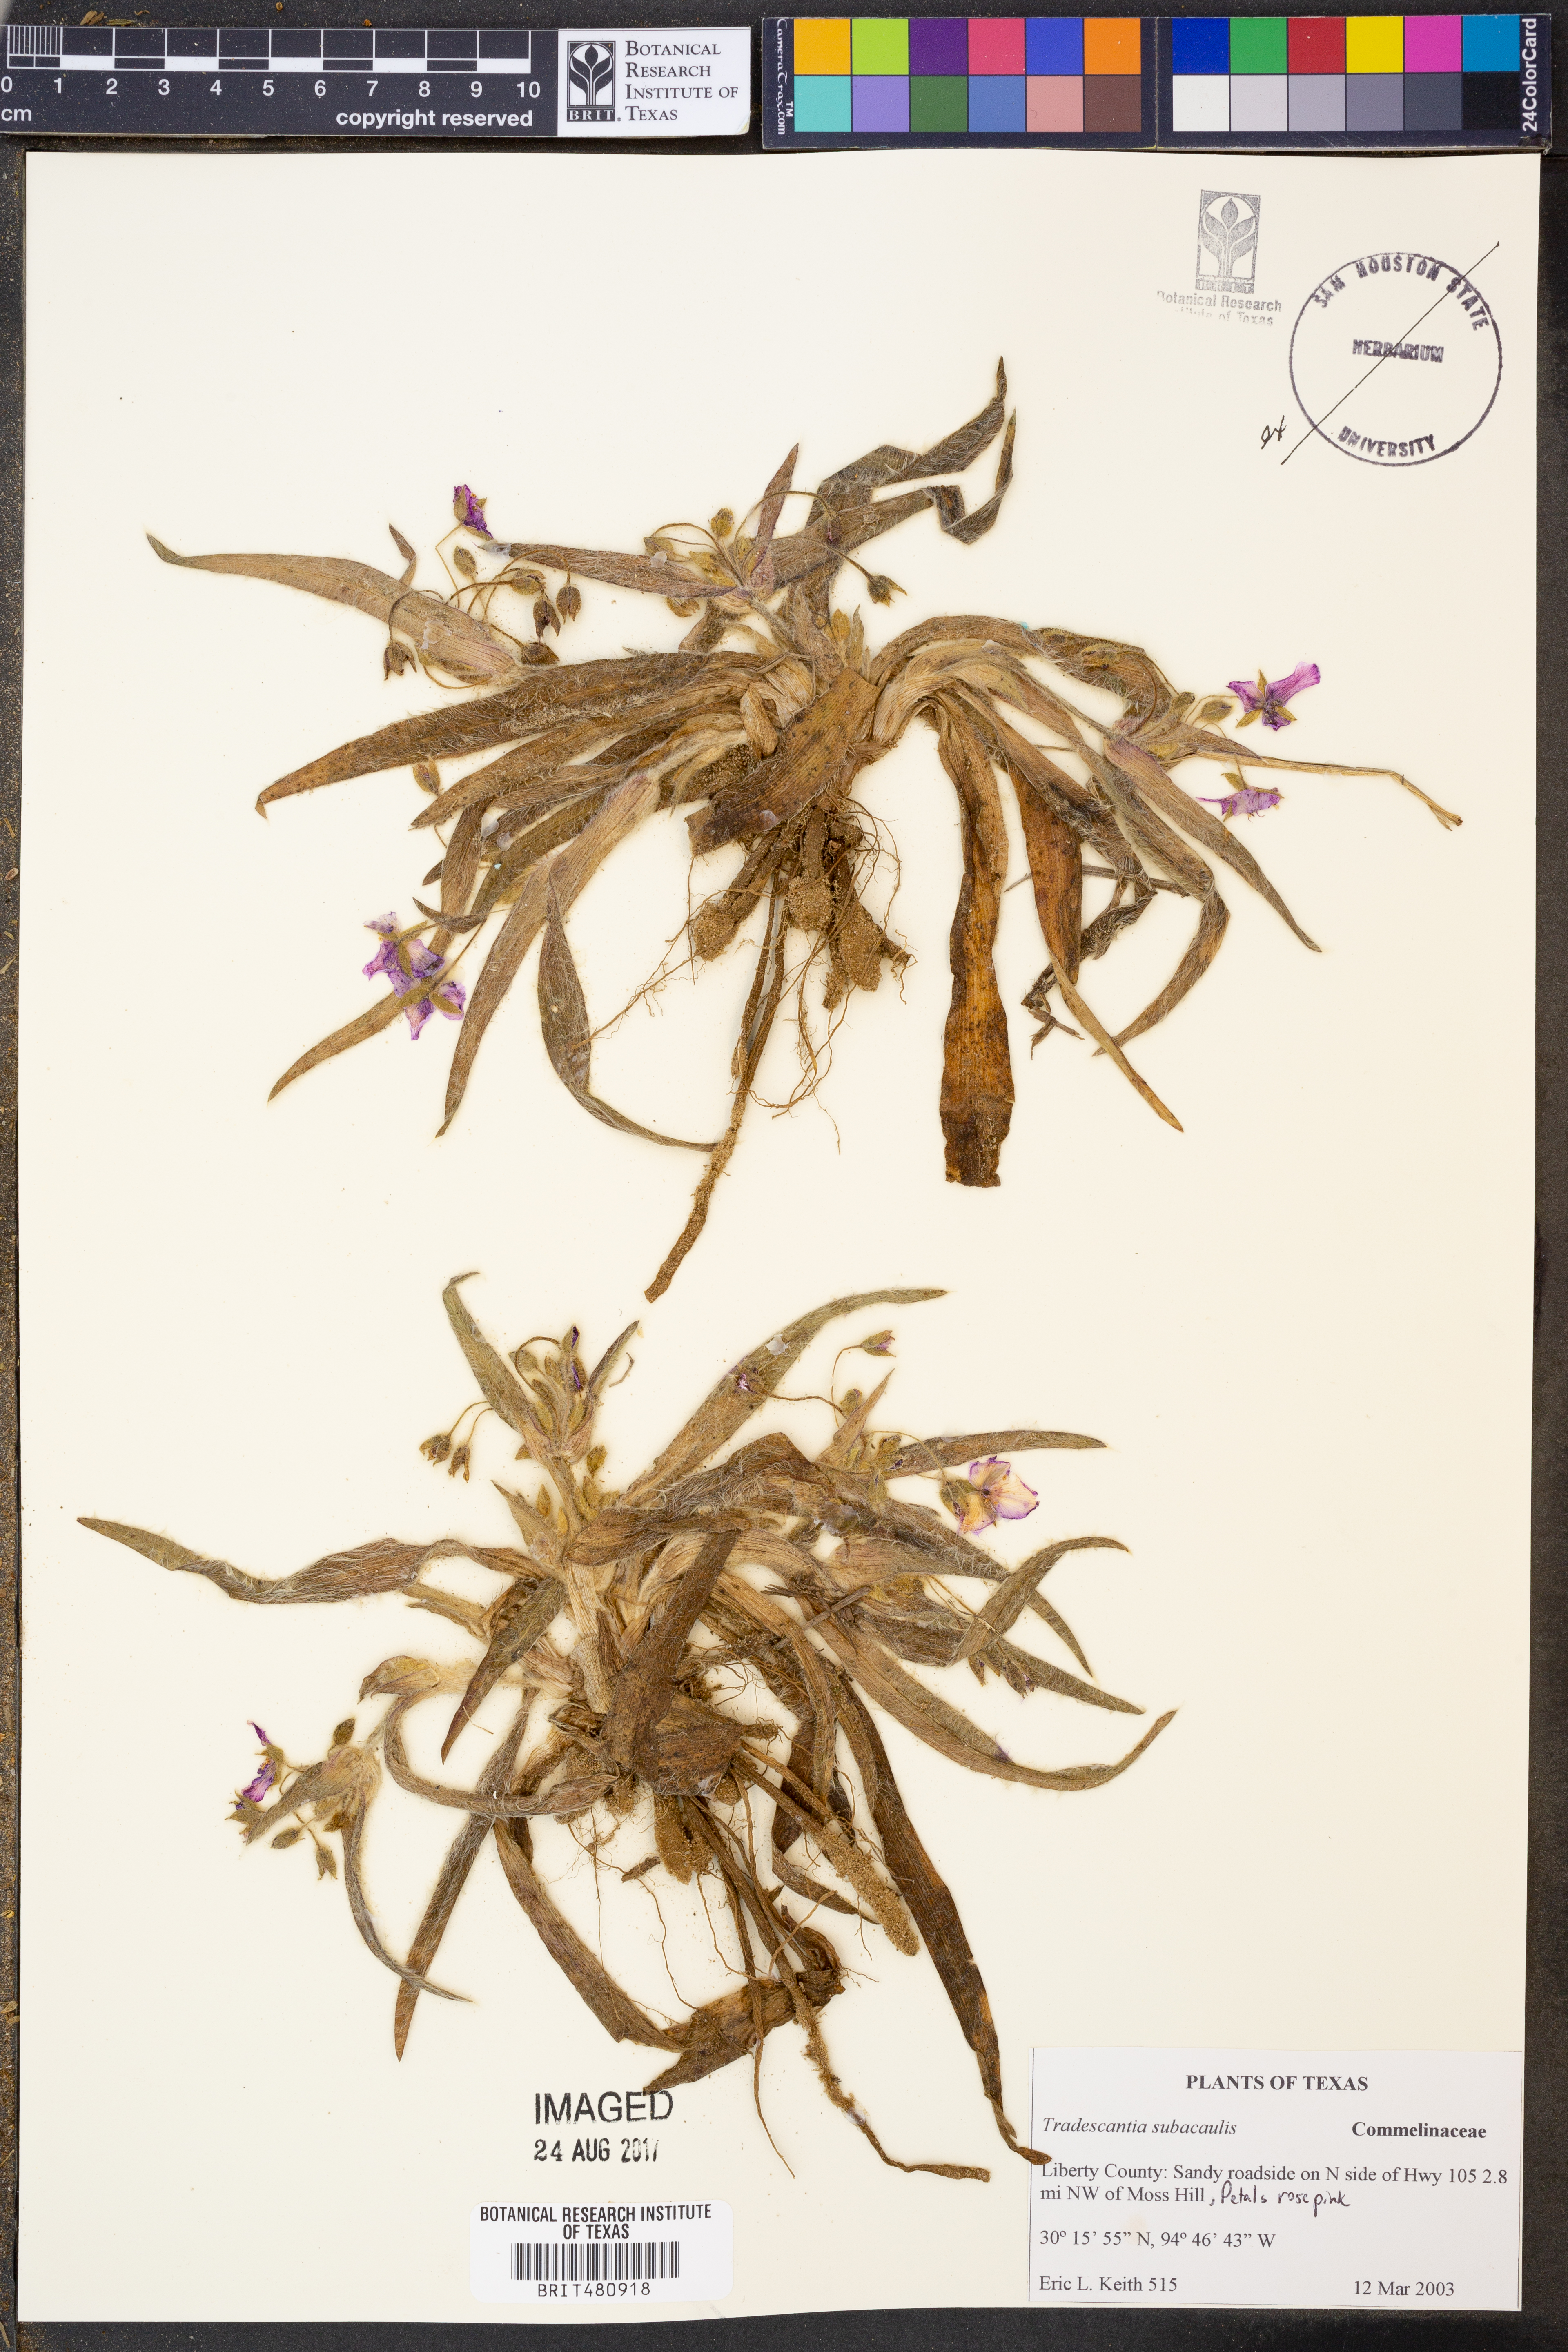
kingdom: Plantae
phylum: Tracheophyta
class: Liliopsida
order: Commelinales
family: Commelinaceae
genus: Tradescantia
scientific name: Tradescantia subacaulis
